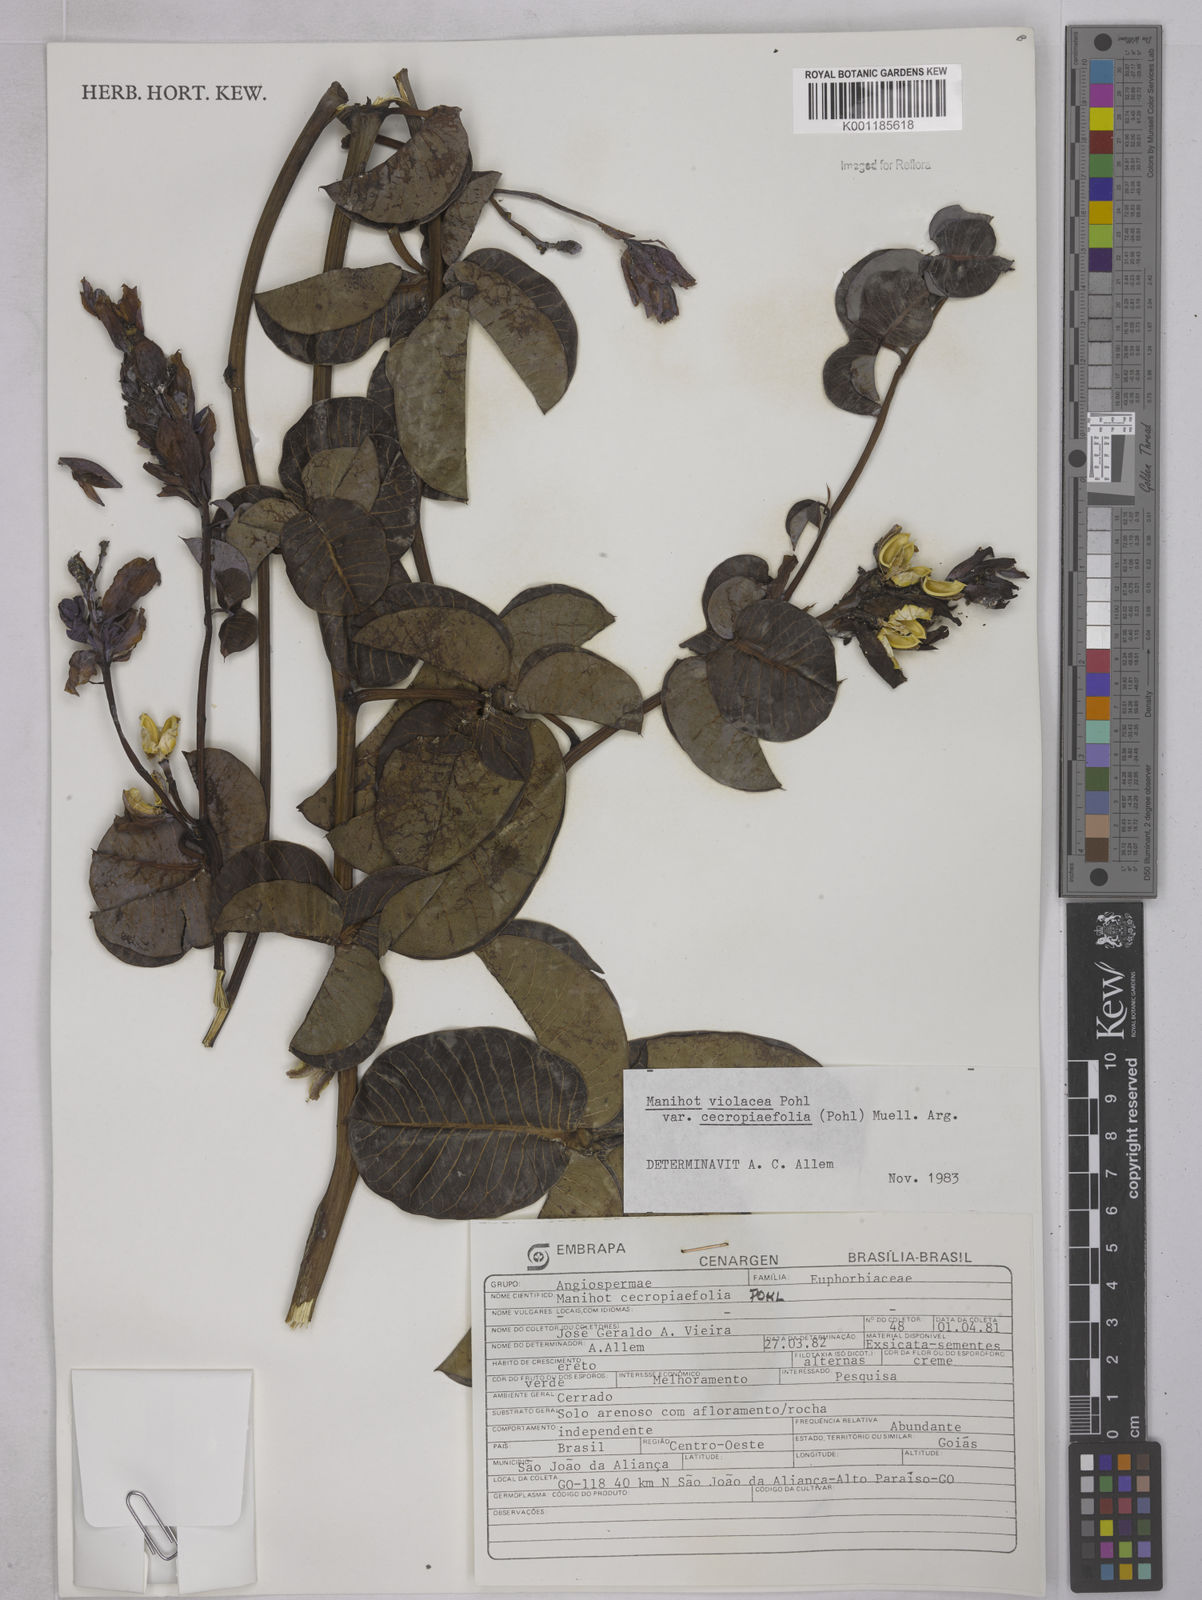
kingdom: Plantae
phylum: Tracheophyta
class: Magnoliopsida
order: Malpighiales
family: Euphorbiaceae
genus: Manihot
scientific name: Manihot cecropiifolia
